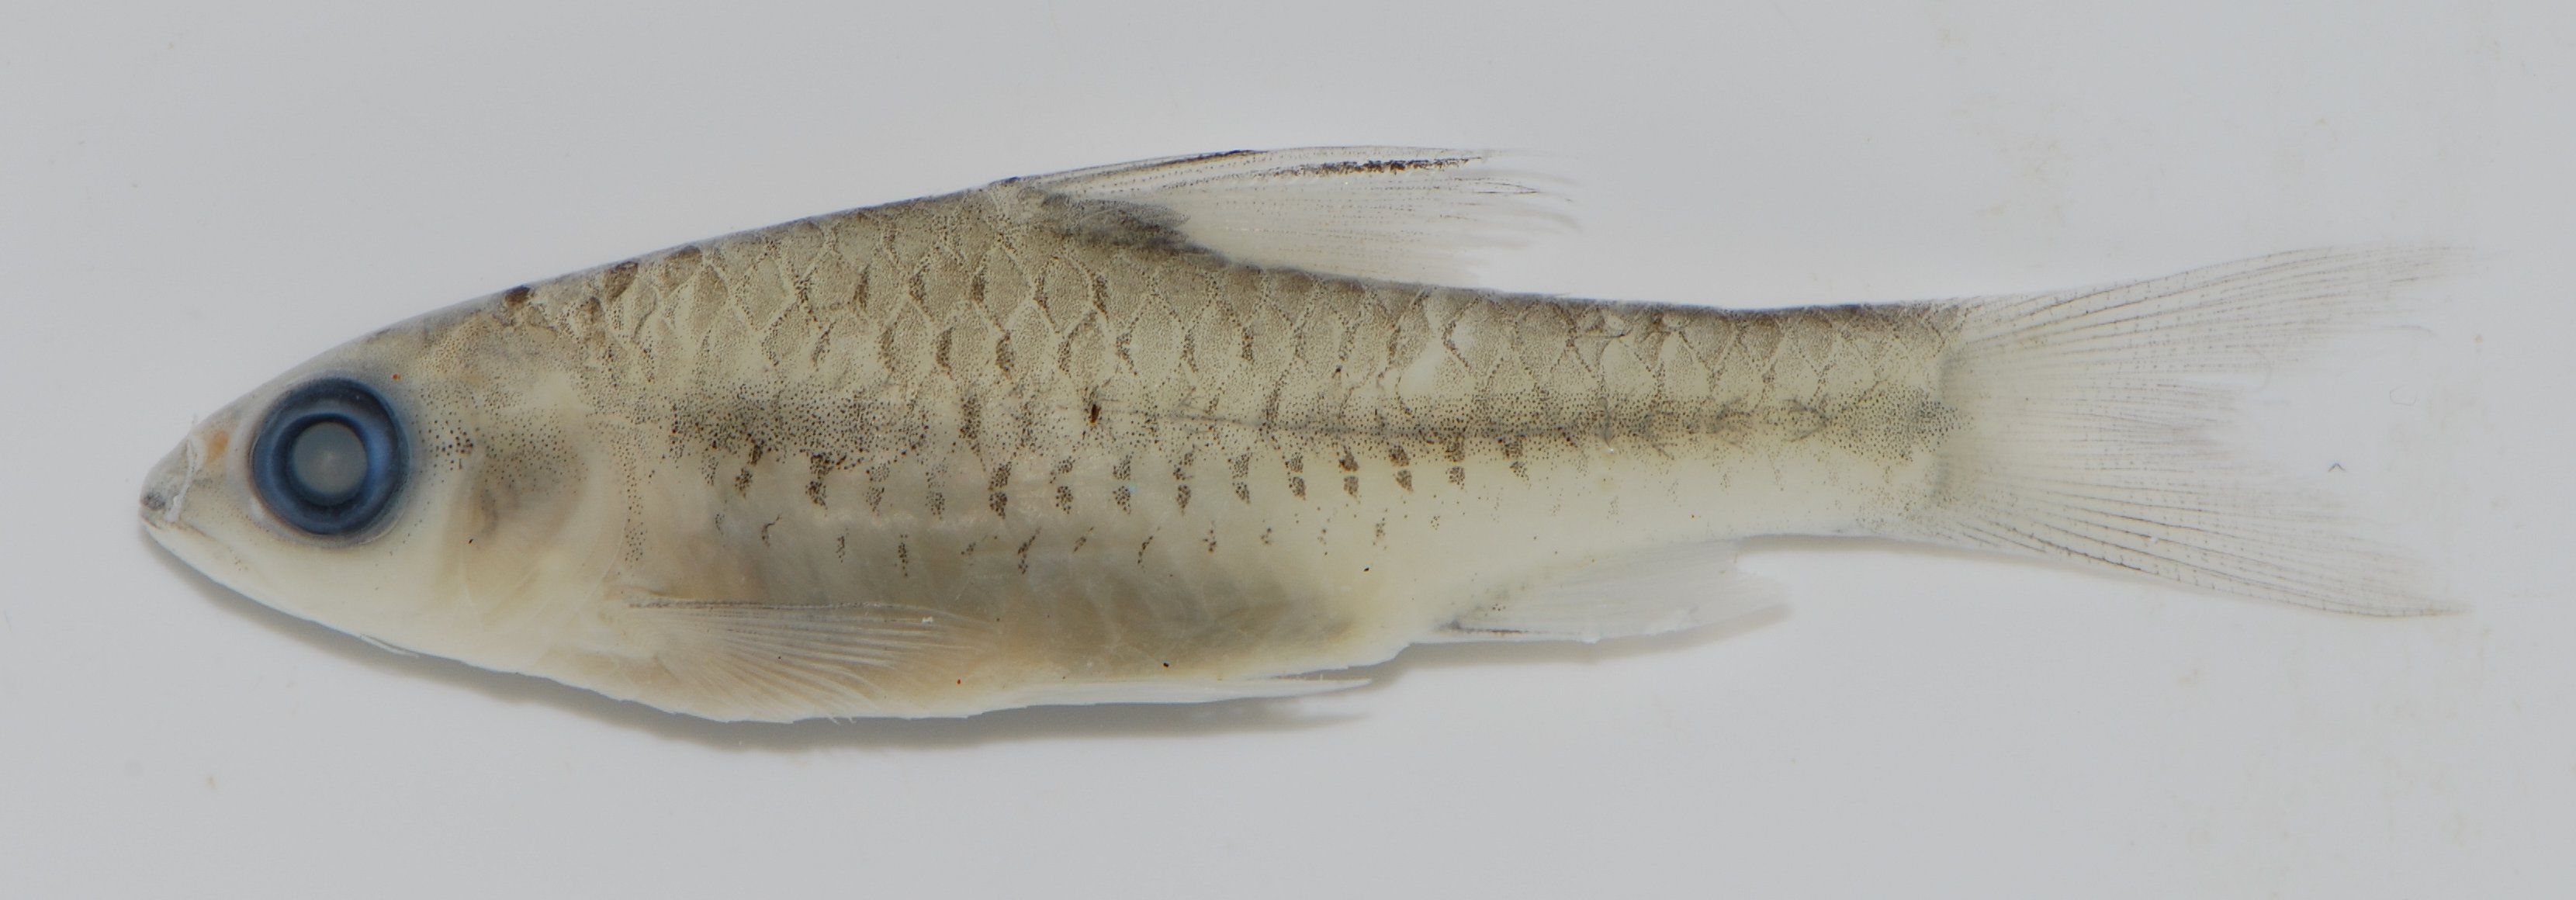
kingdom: Animalia
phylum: Chordata
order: Cypriniformes
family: Cyprinidae
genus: Barbus
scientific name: Barbus
